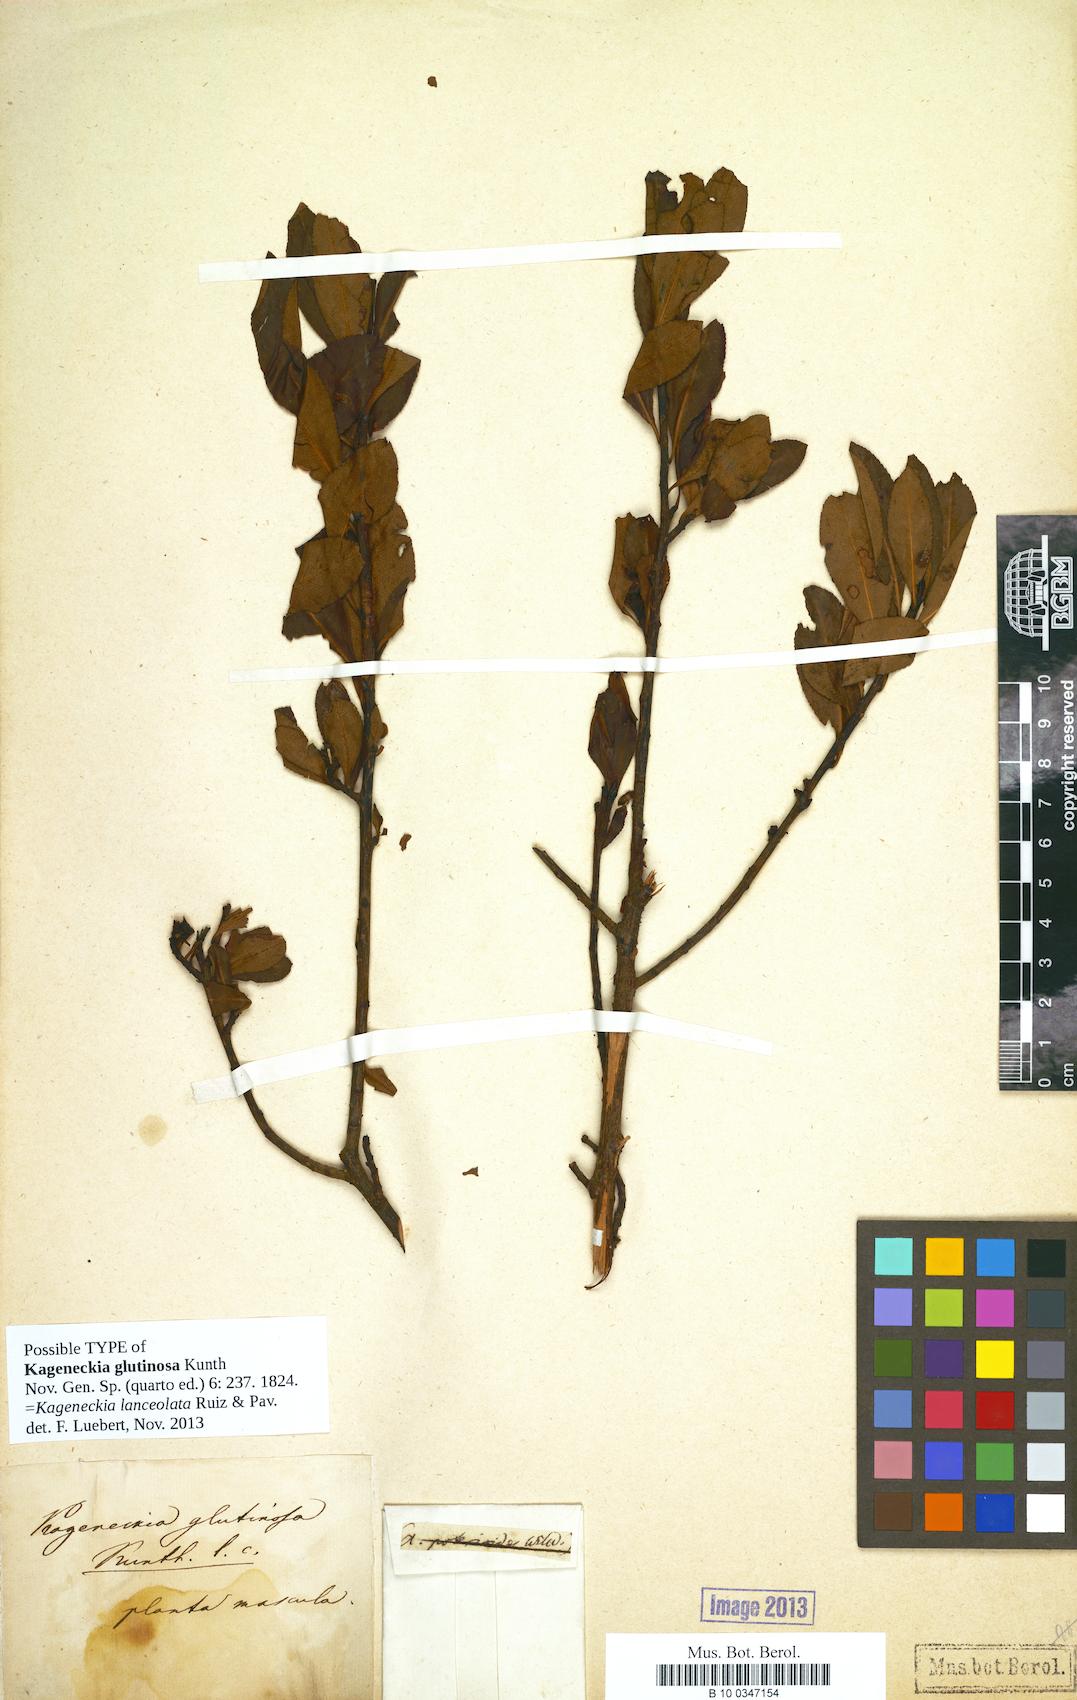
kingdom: Plantae
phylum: Tracheophyta
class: Magnoliopsida
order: Rosales
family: Rosaceae
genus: Kageneckia
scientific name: Kageneckia lanceolata
